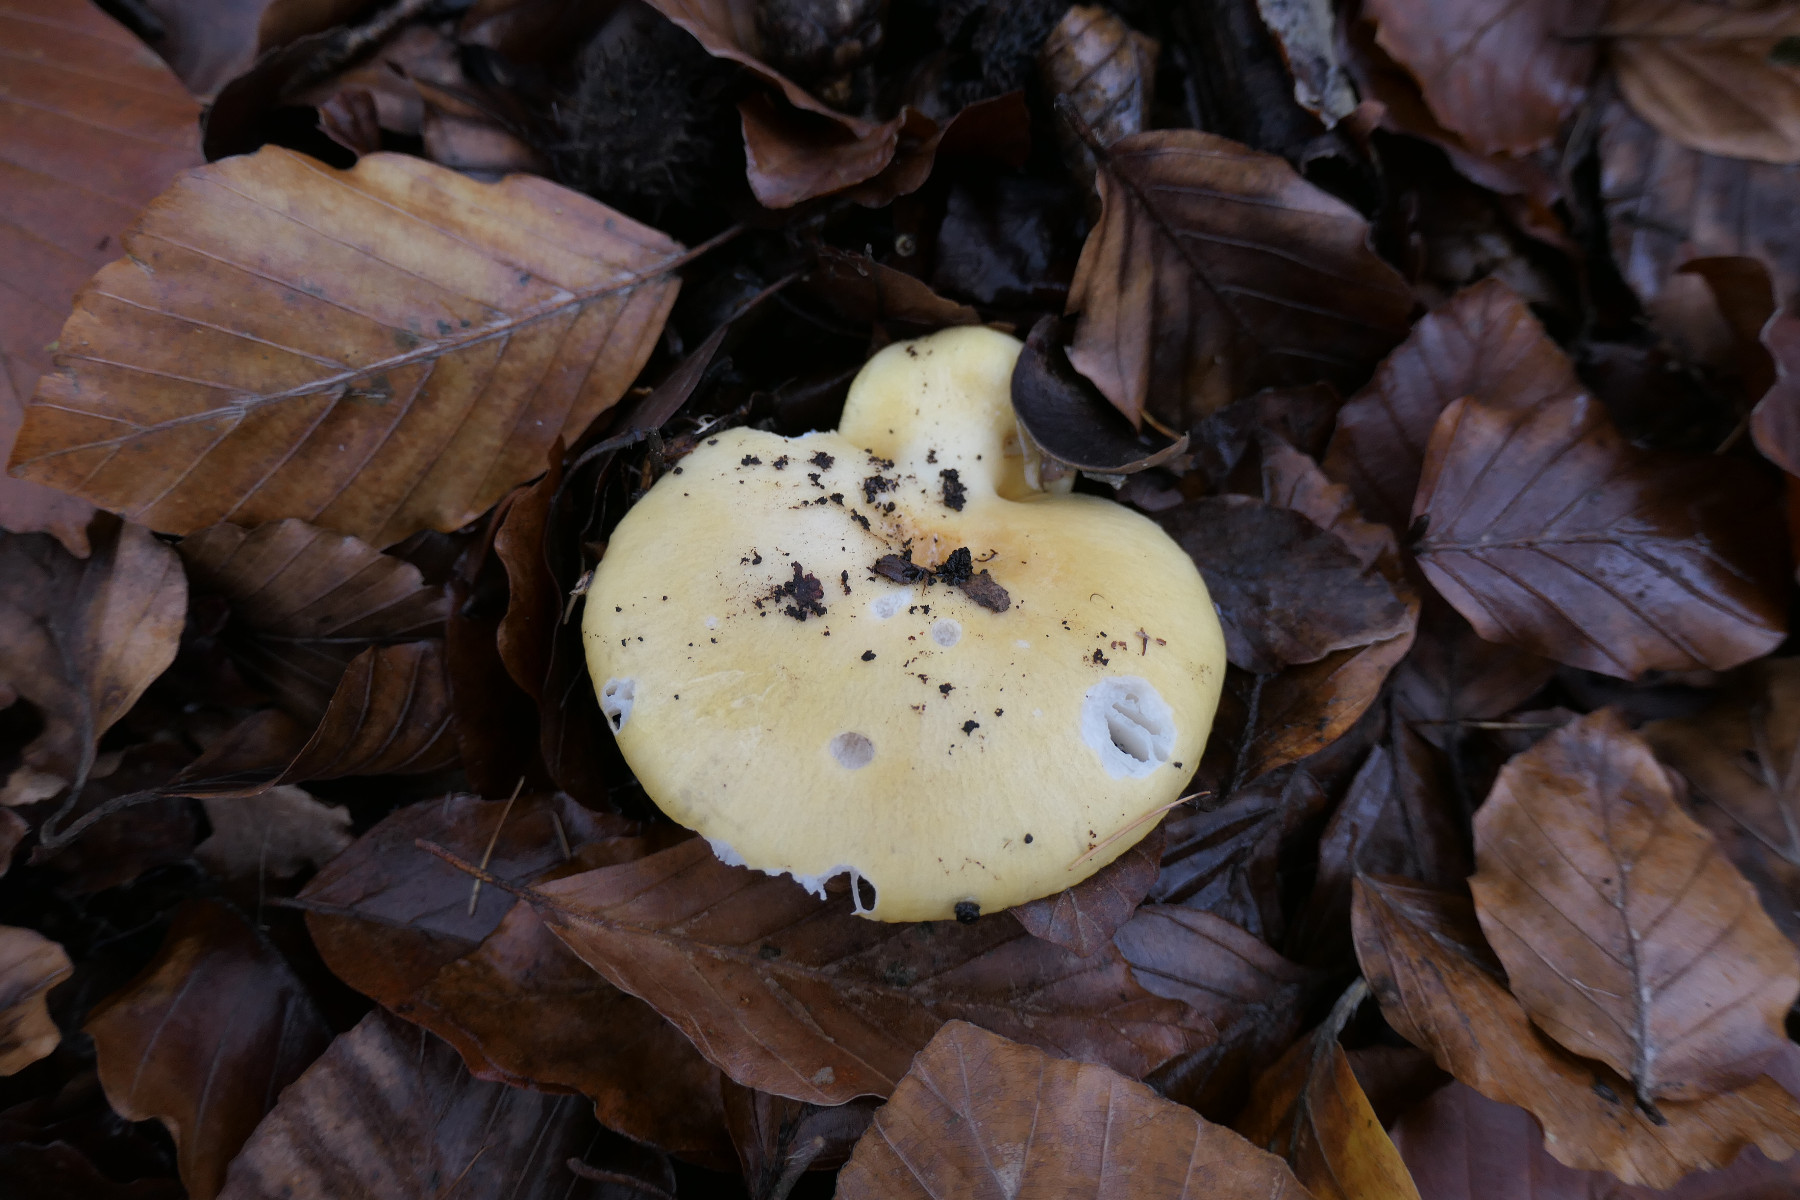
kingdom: Fungi
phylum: Basidiomycota
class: Agaricomycetes
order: Russulales
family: Russulaceae
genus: Russula
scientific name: Russula ochroleuca
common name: okkergul skørhat
